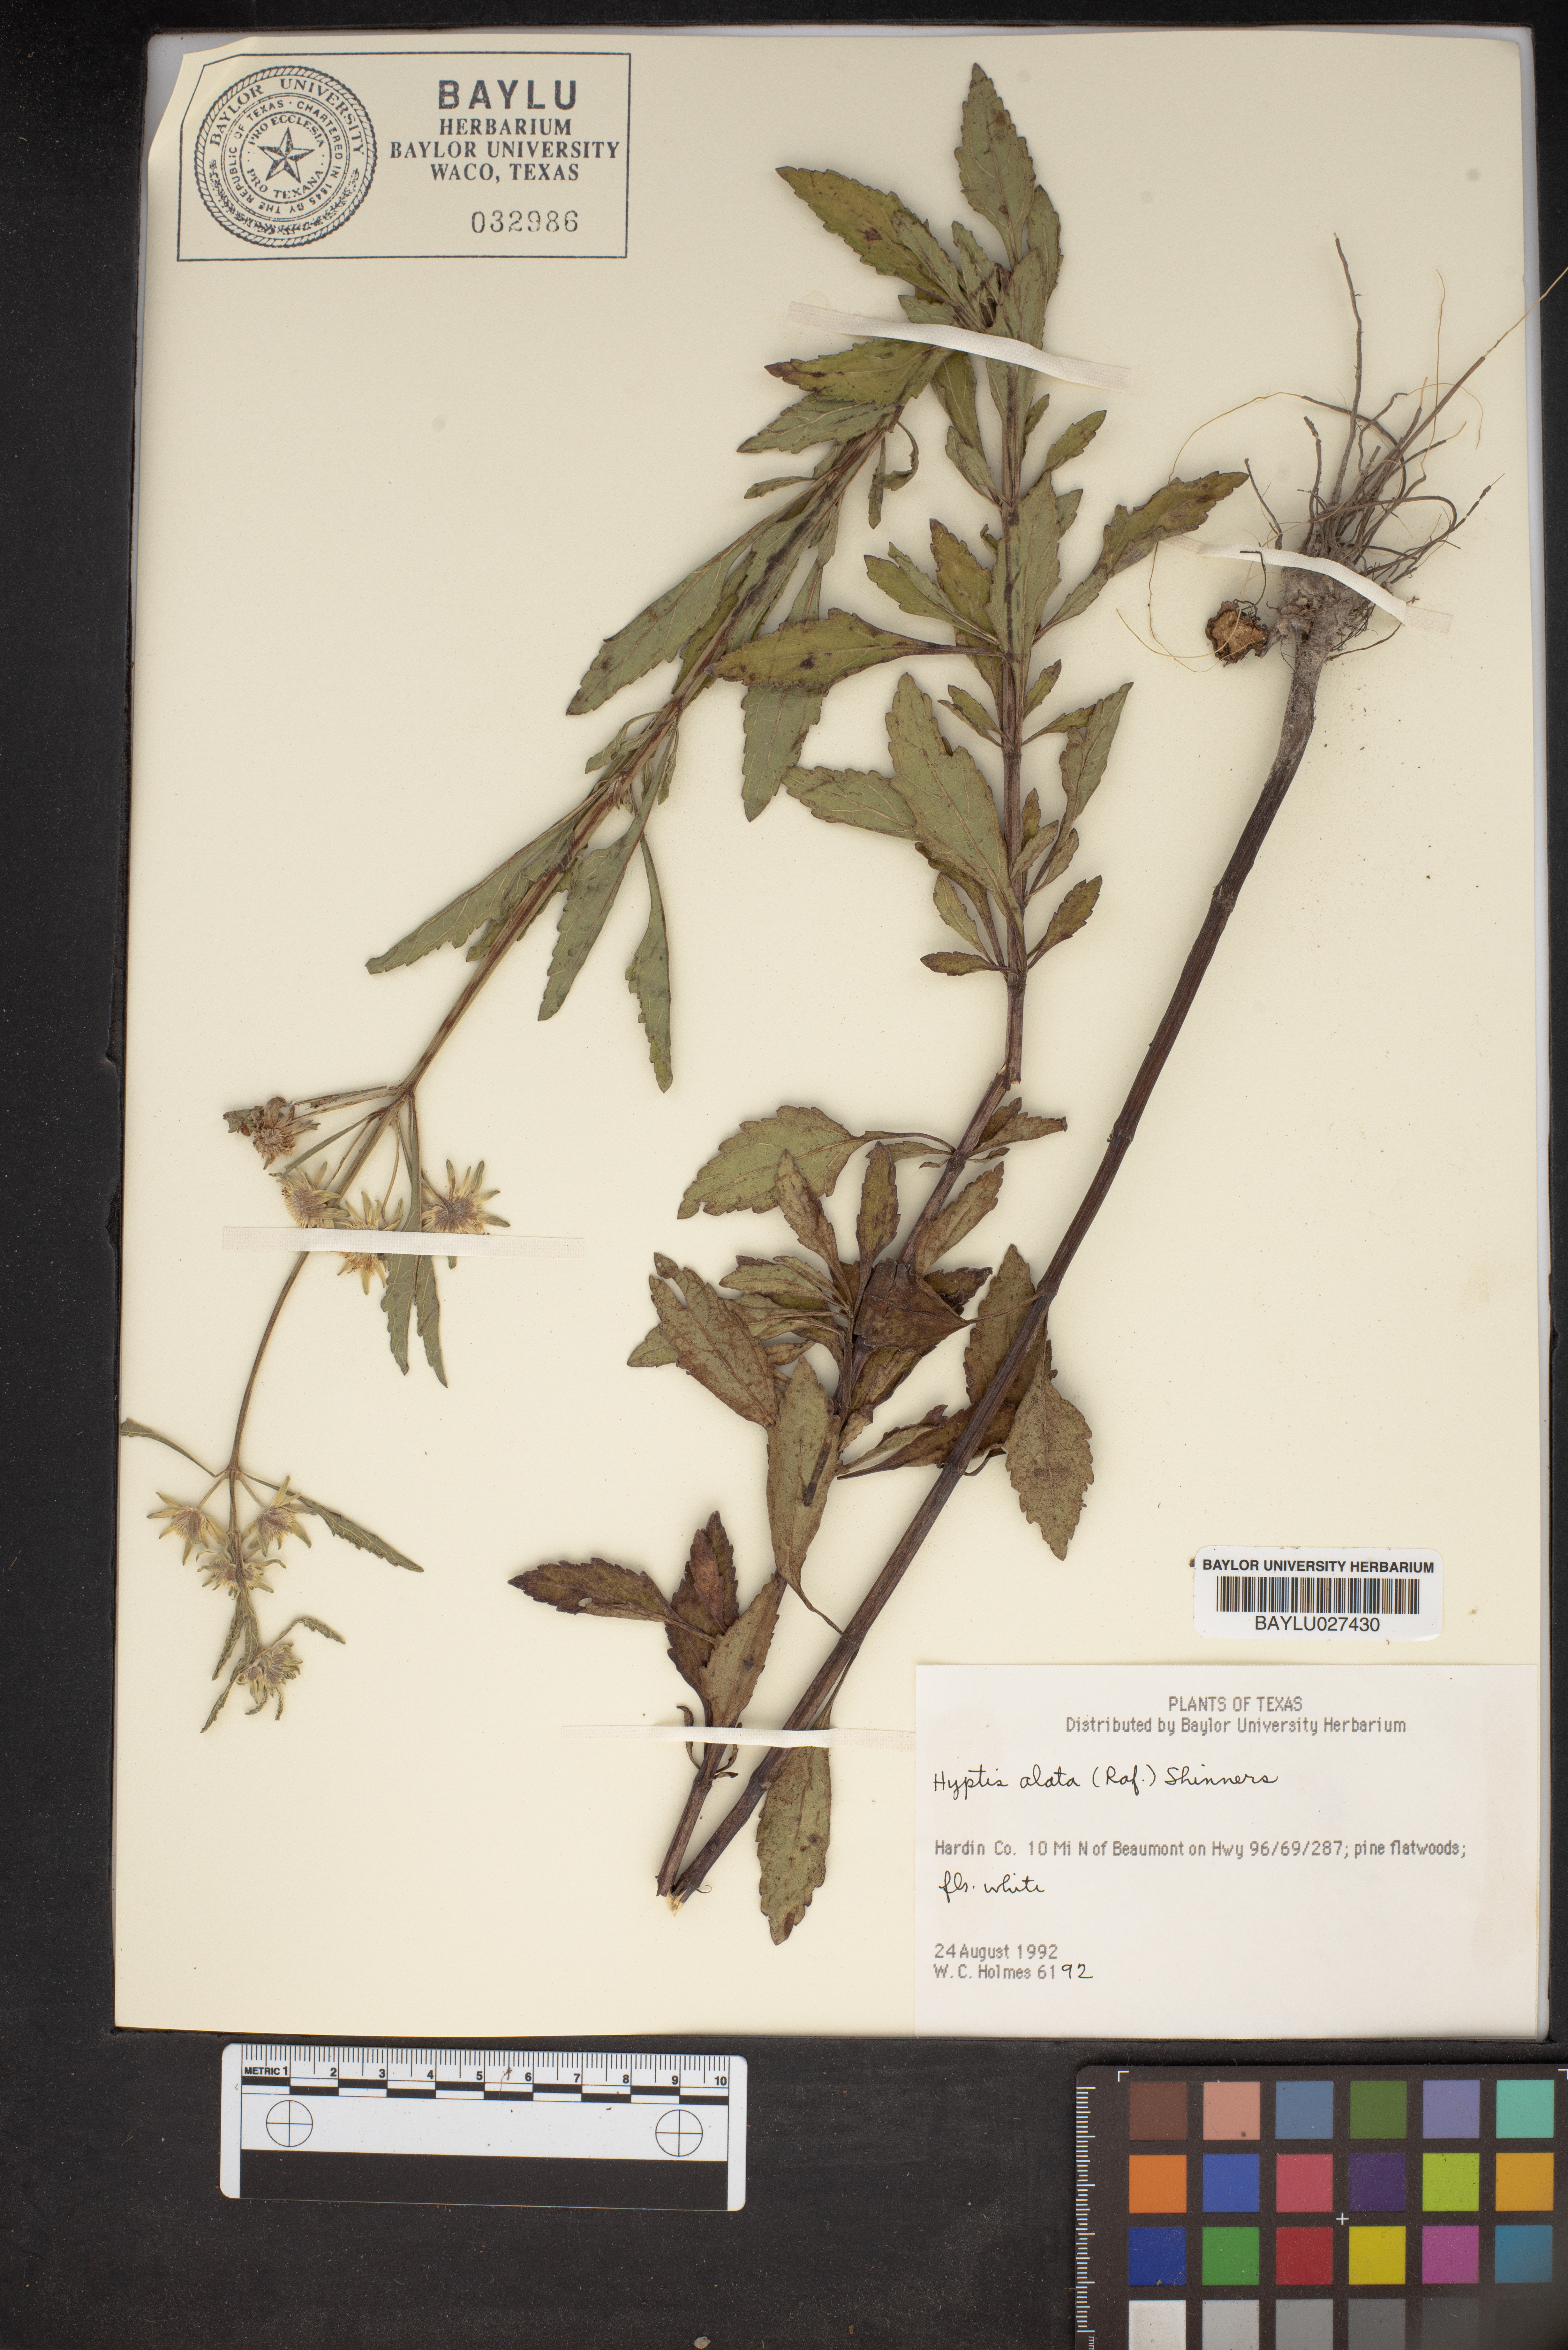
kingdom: Plantae
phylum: Tracheophyta
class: Magnoliopsida
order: Lamiales
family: Lamiaceae
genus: Hyptis
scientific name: Hyptis alata
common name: Cluster bush-mint
